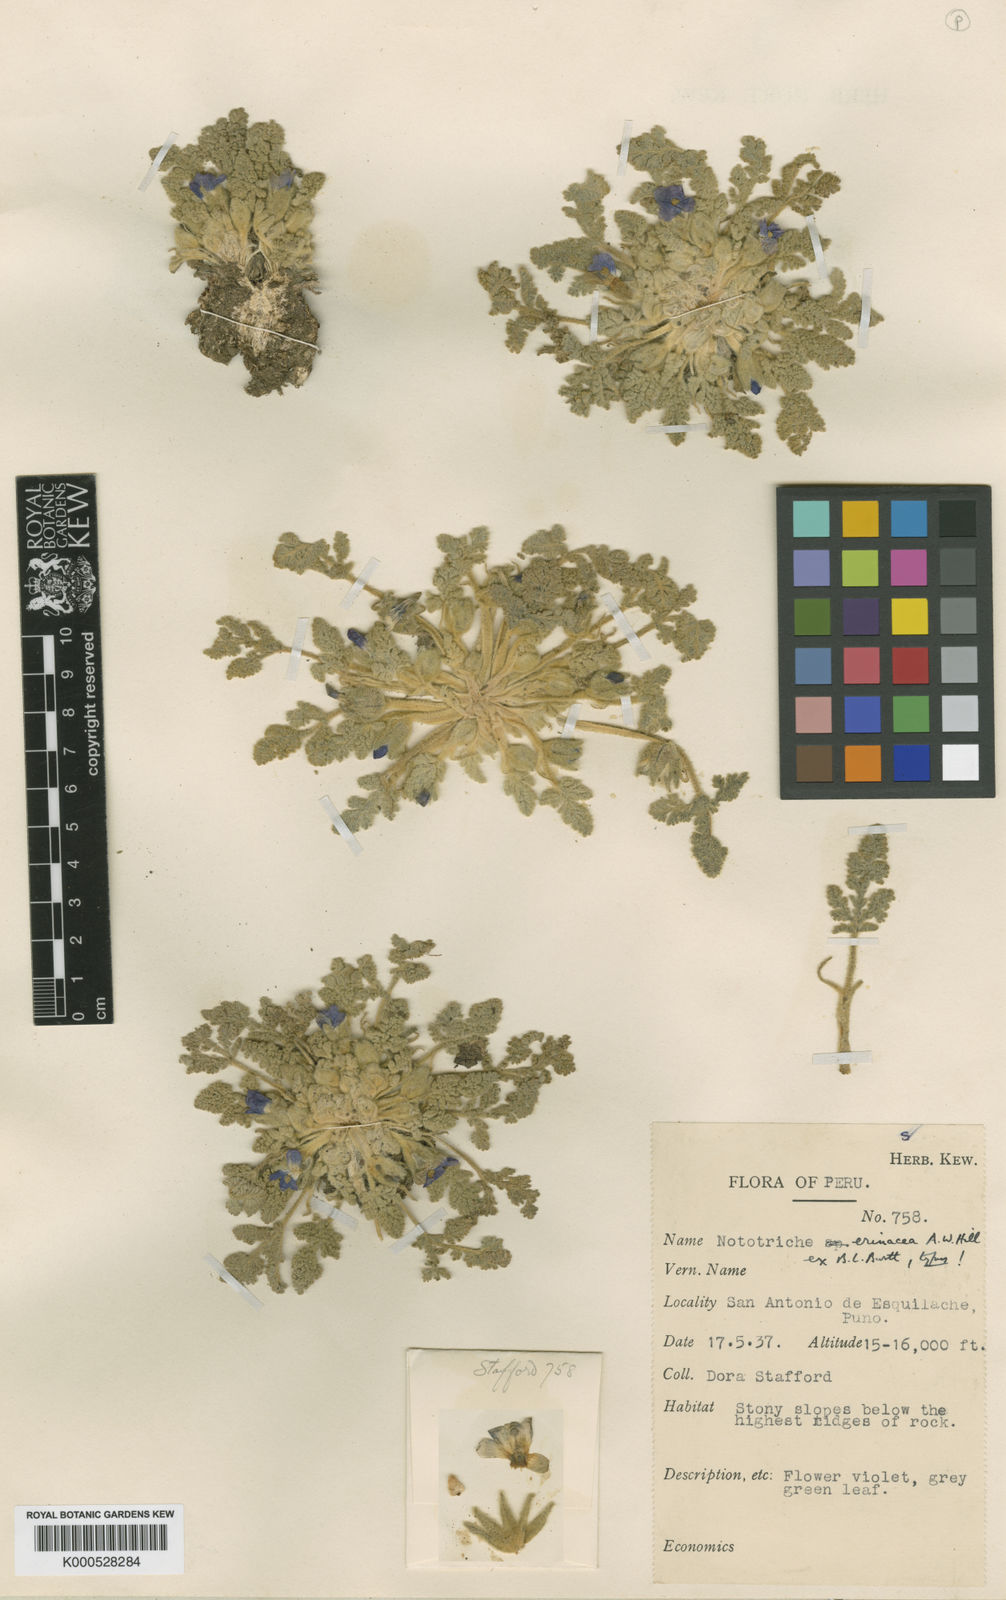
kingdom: Plantae
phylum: Tracheophyta
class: Magnoliopsida
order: Malvales
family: Malvaceae
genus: Nototriche
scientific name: Nototriche
